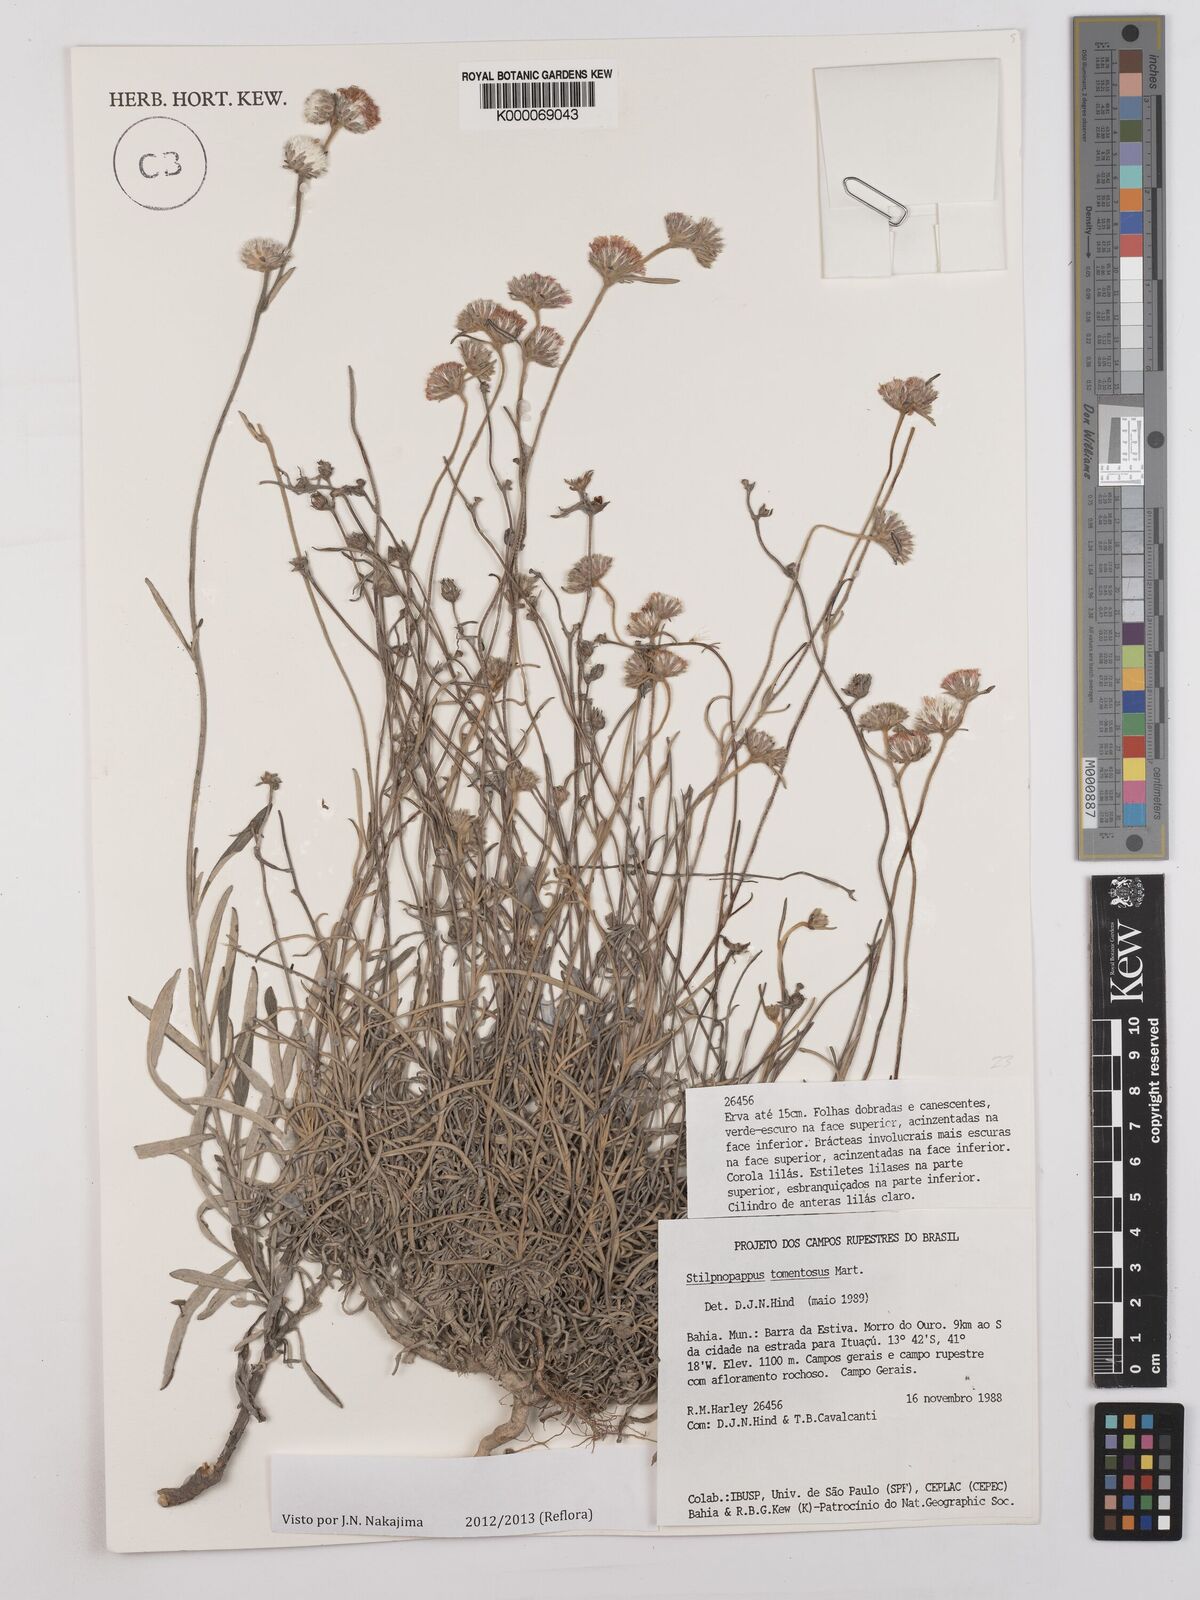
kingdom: Plantae
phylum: Tracheophyta
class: Magnoliopsida
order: Asterales
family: Asteraceae
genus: Stilpnopappus
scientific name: Stilpnopappus tomentosus
